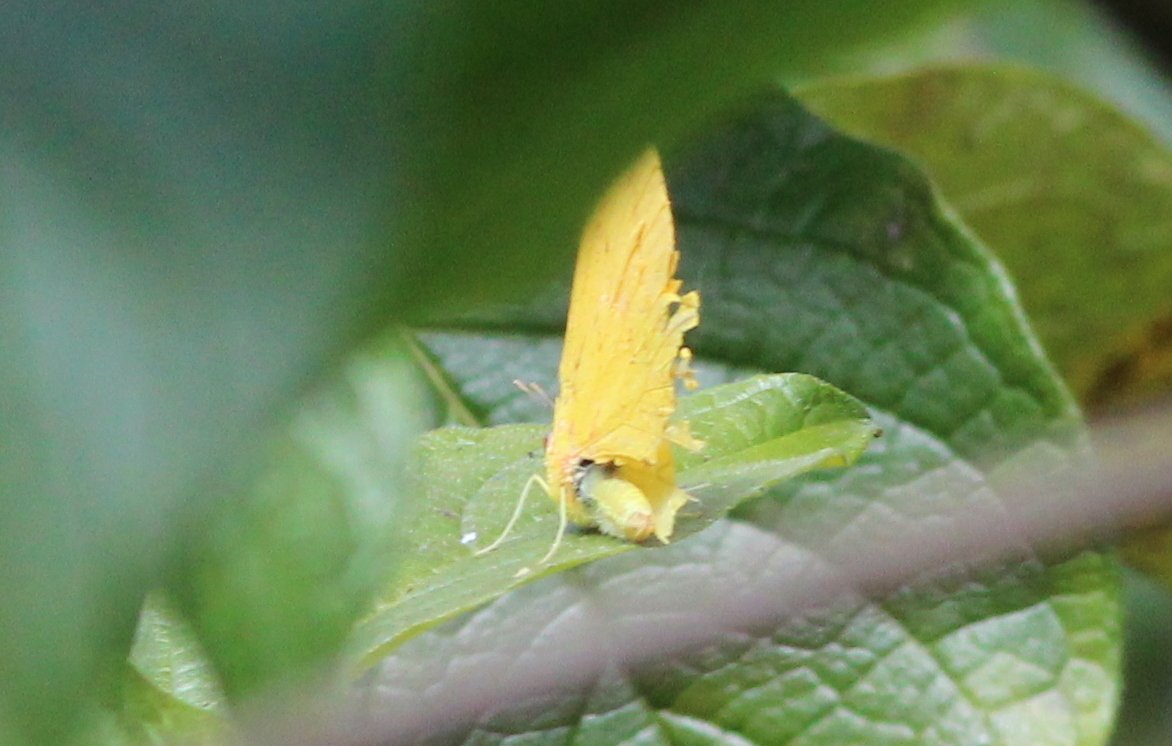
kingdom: Animalia
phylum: Arthropoda
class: Insecta
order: Lepidoptera
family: Pieridae
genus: Phoebis
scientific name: Phoebis sennae
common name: Cloudless Sulphur
